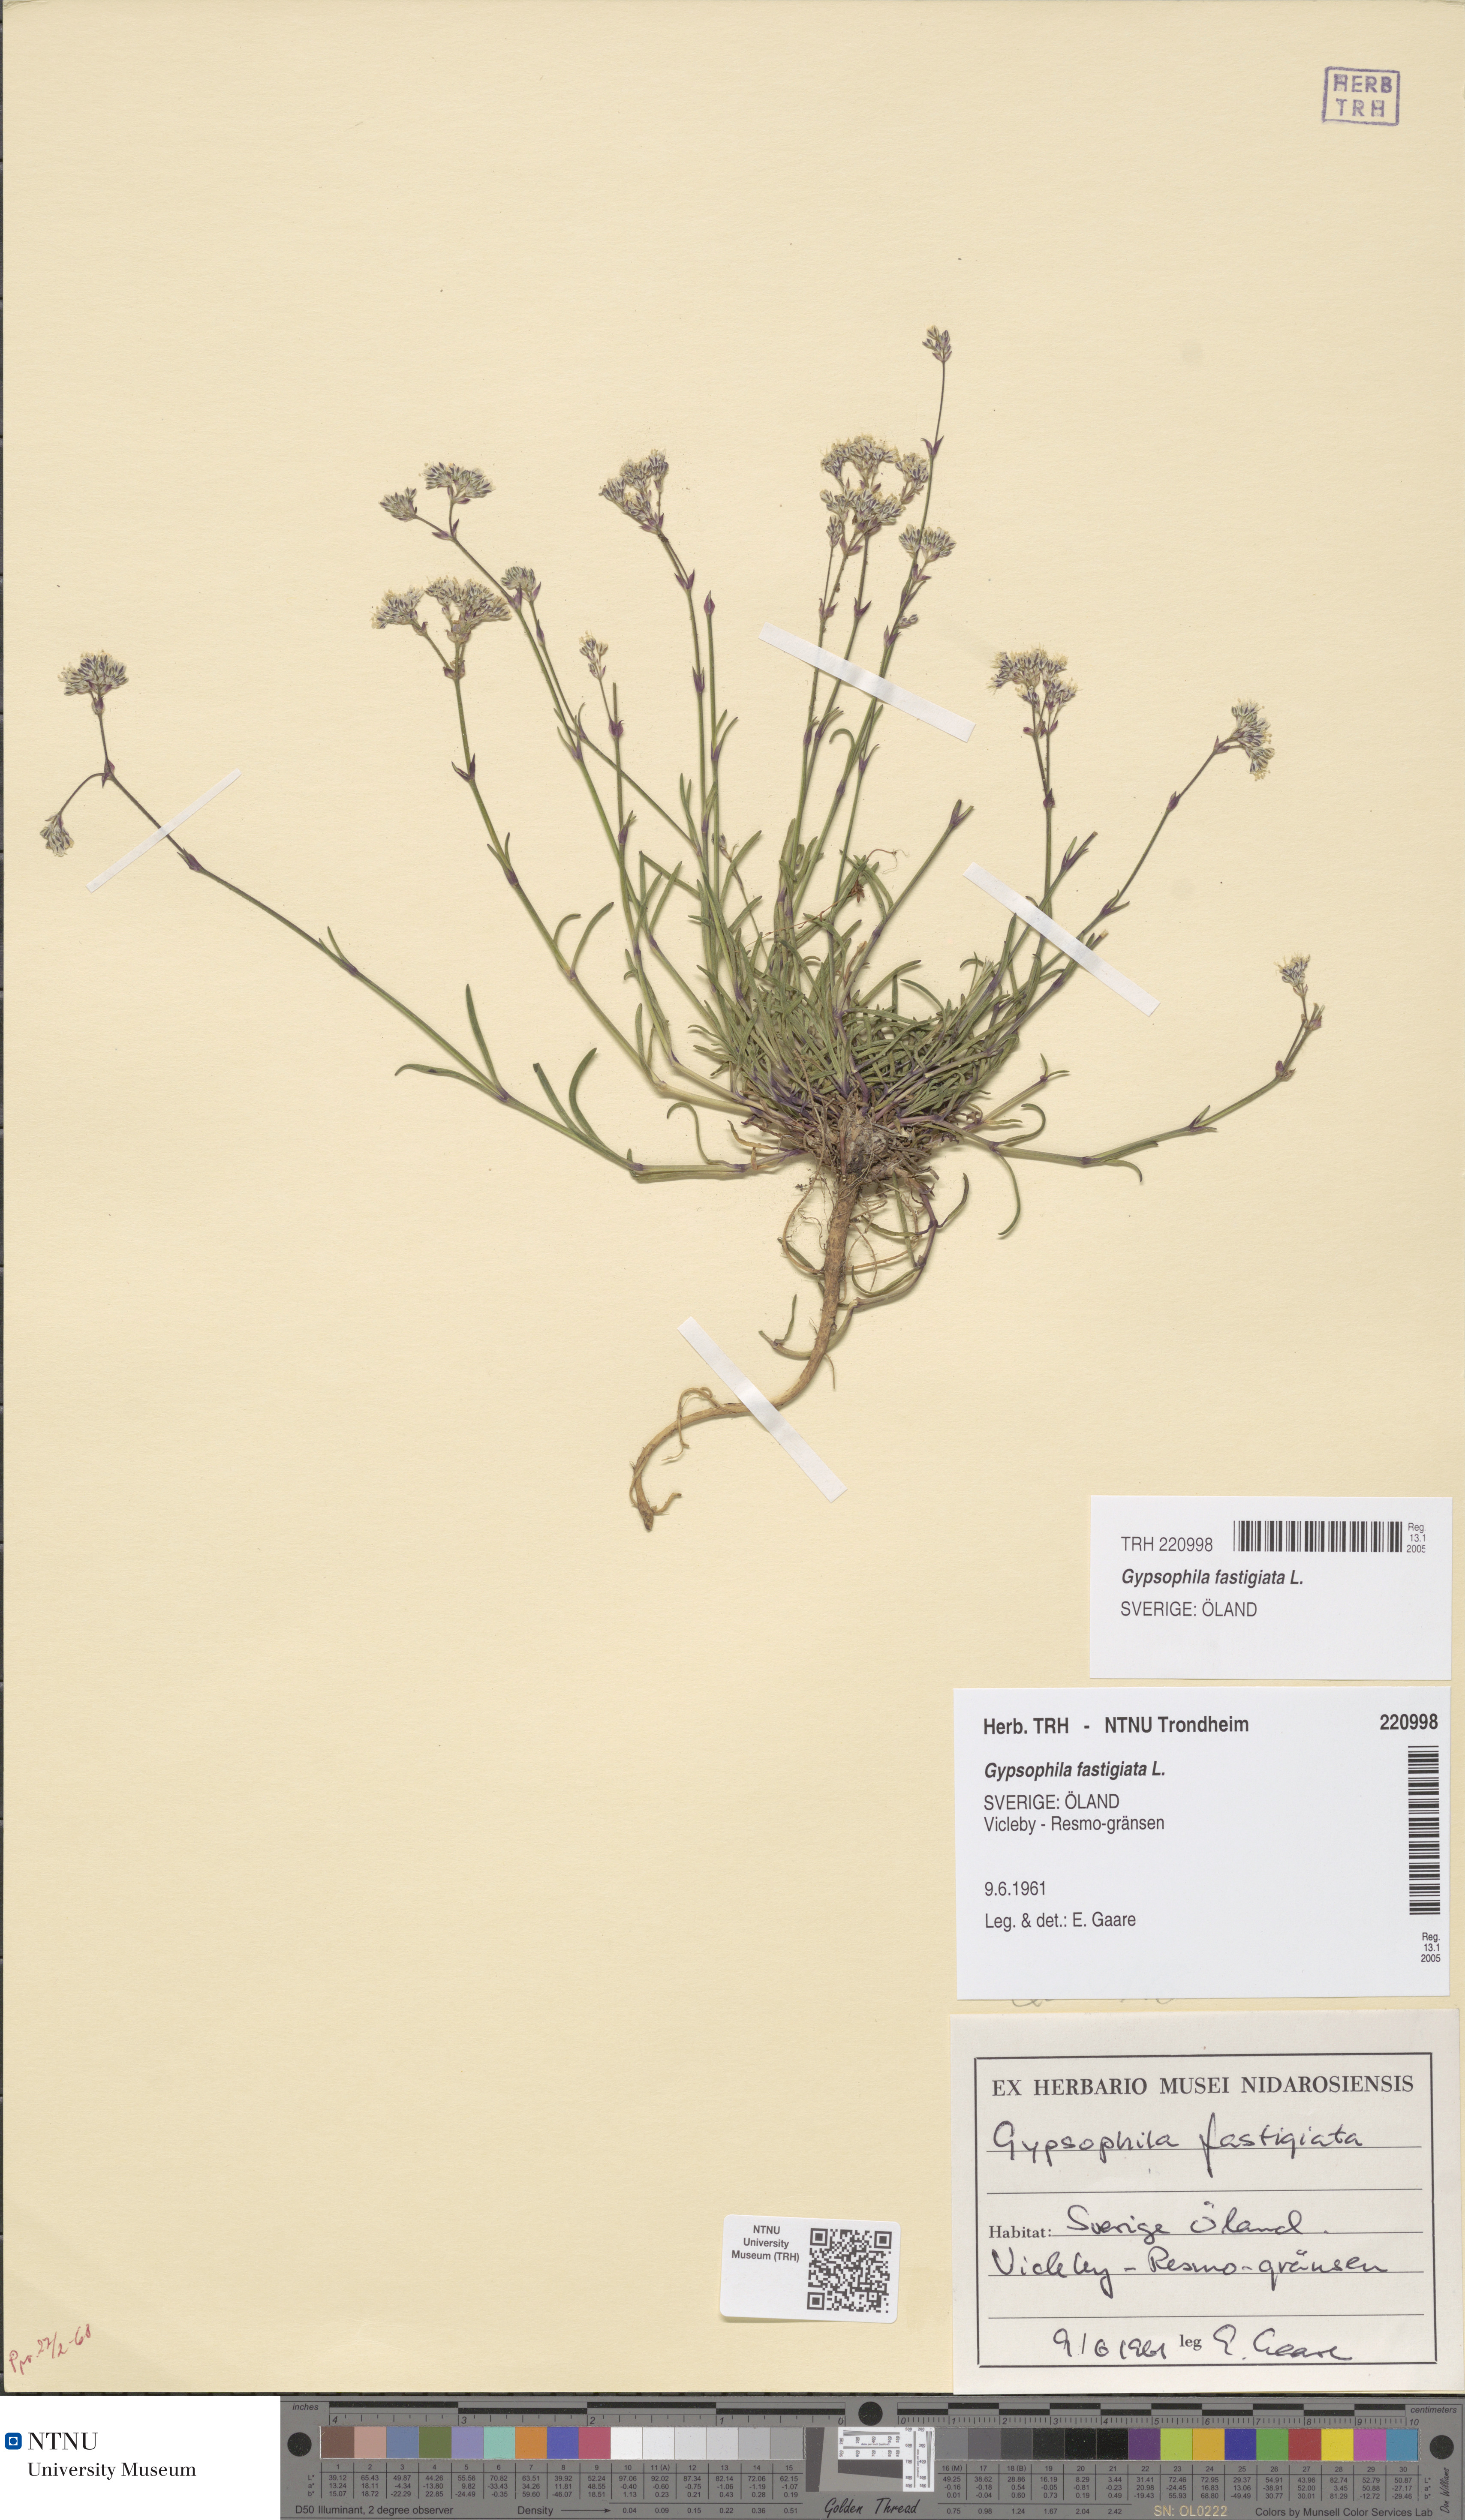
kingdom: Plantae
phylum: Tracheophyta
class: Magnoliopsida
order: Caryophyllales
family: Caryophyllaceae
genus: Gypsophila
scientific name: Gypsophila fastigiata
